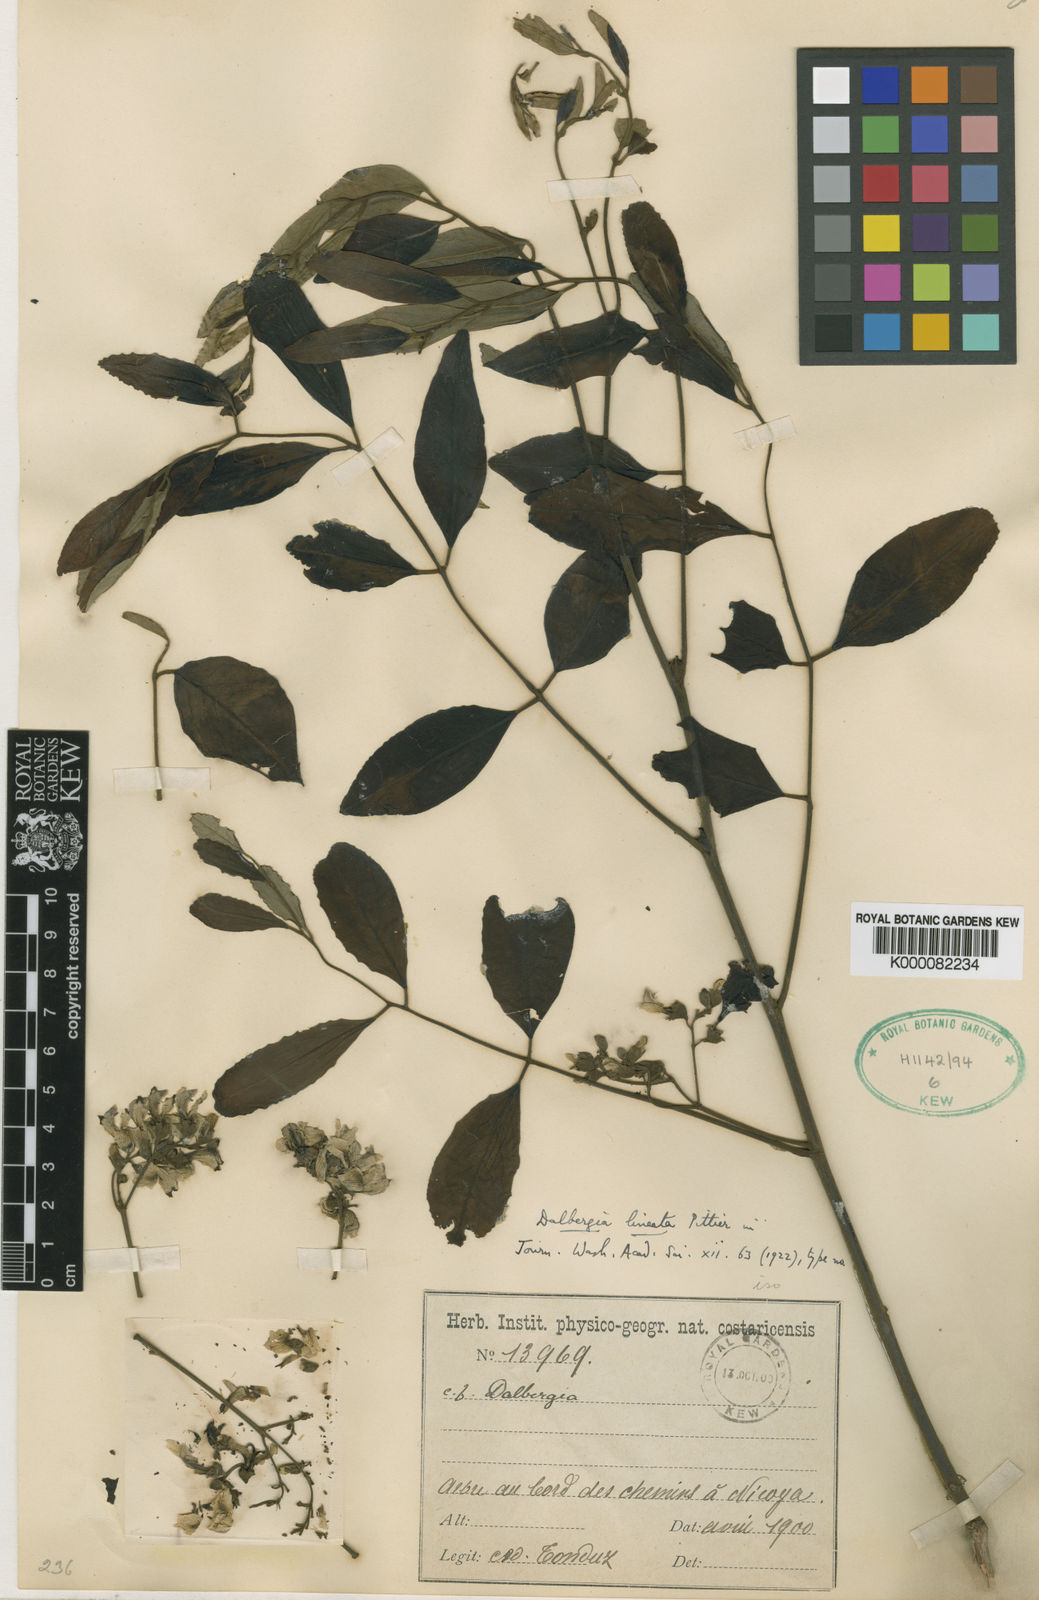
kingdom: Plantae
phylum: Tracheophyta
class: Magnoliopsida
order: Fabales
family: Fabaceae
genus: Dalbergia
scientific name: Dalbergia retusa
